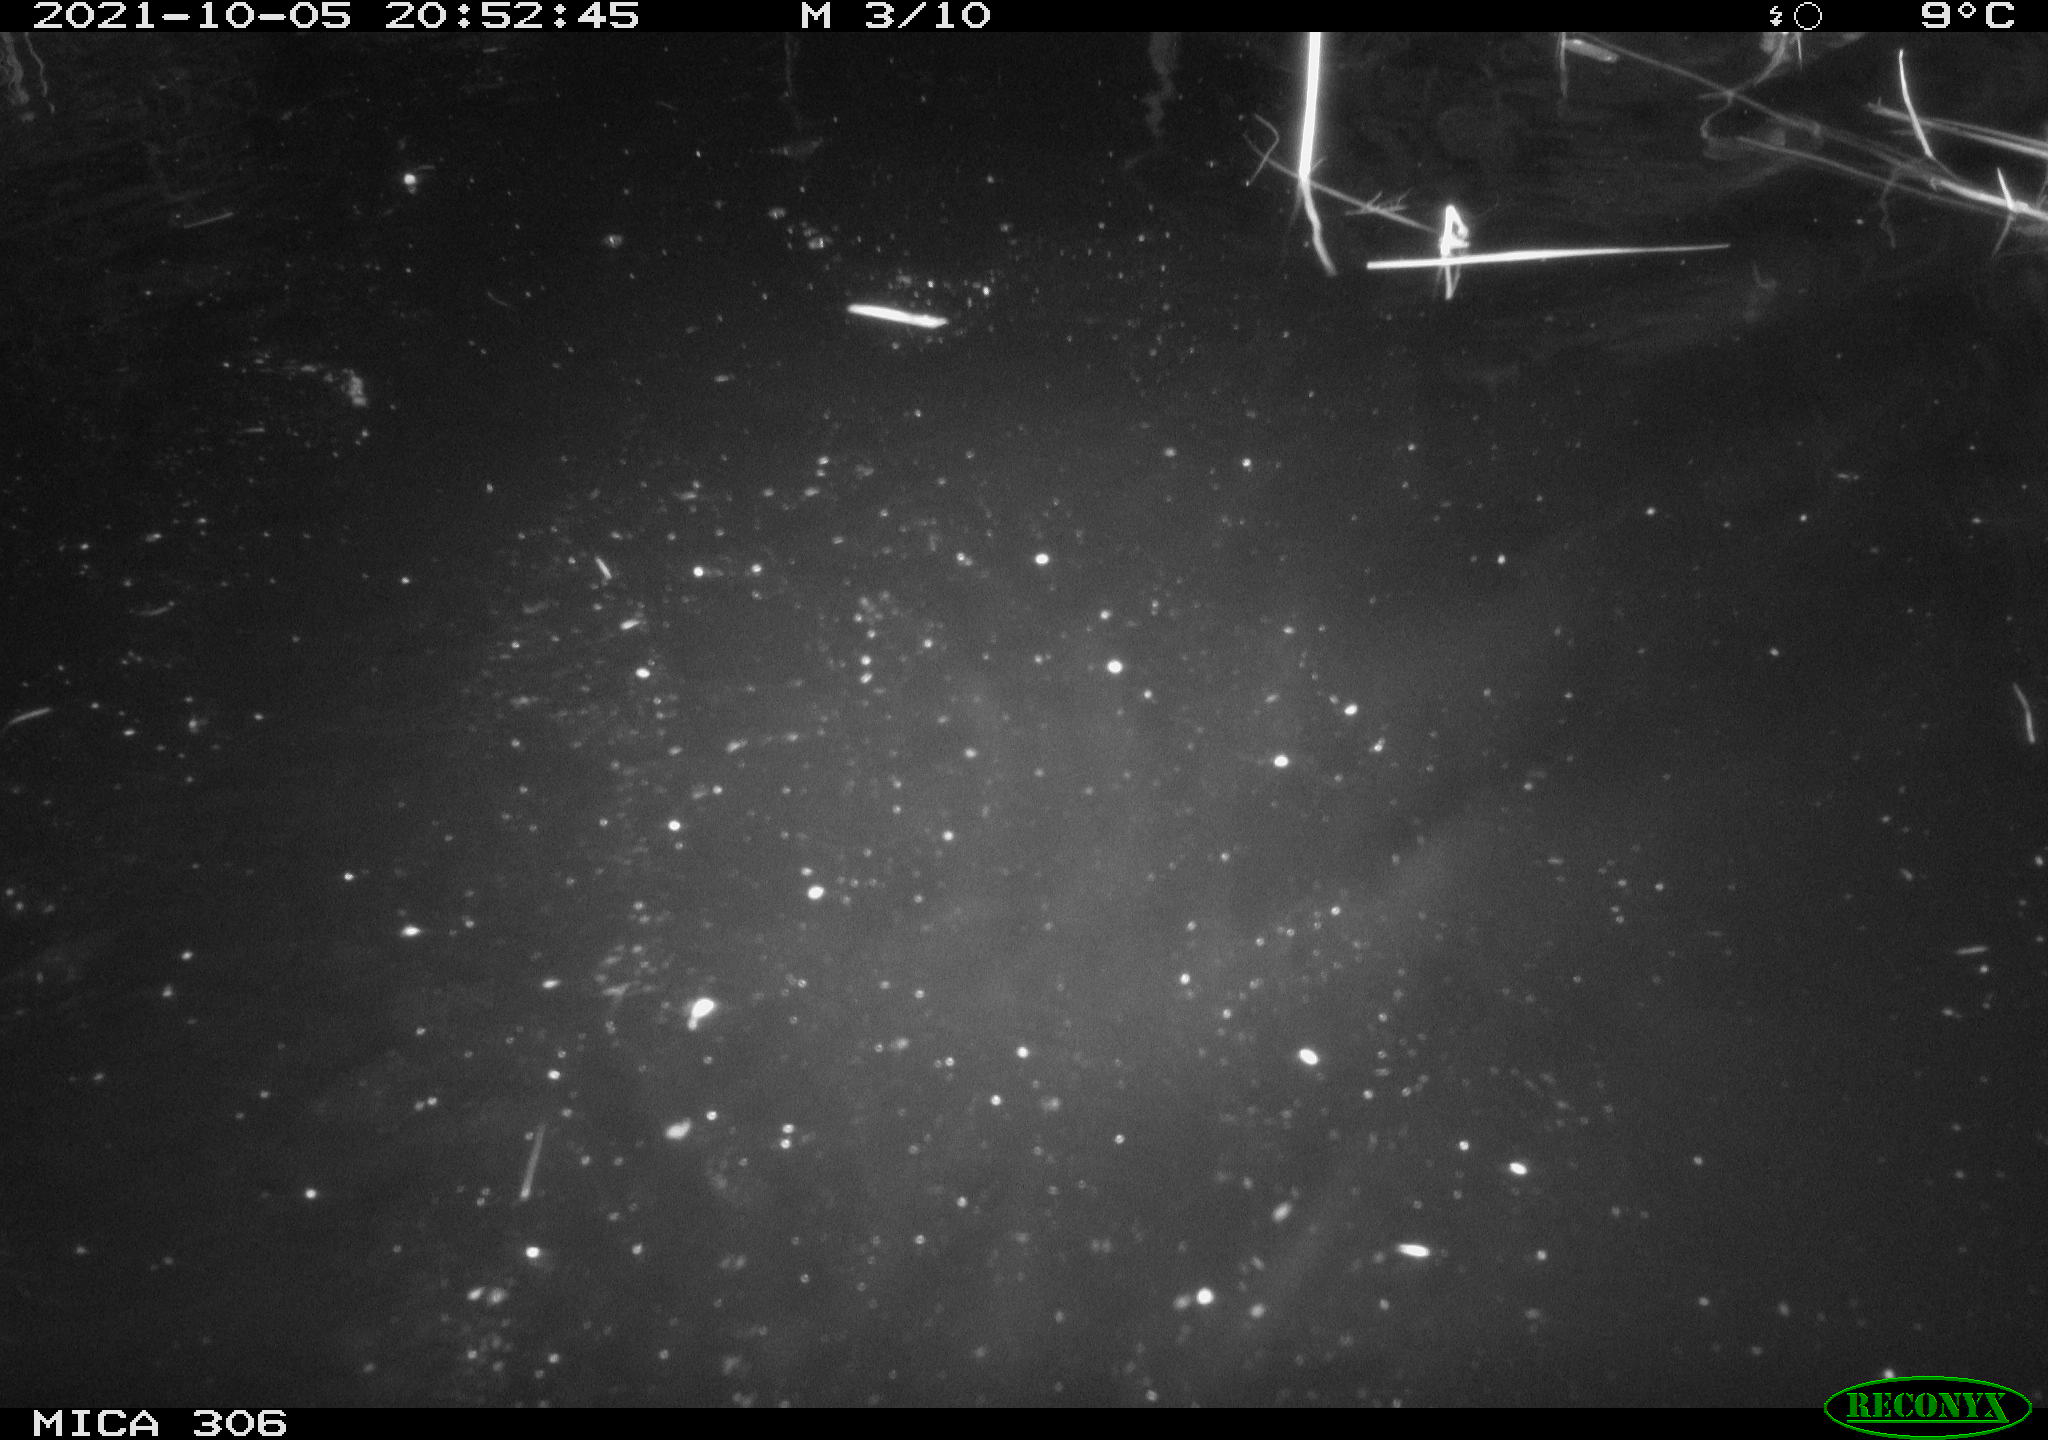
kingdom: Animalia
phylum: Chordata
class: Mammalia
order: Rodentia
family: Cricetidae
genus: Ondatra
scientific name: Ondatra zibethicus
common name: Muskrat
